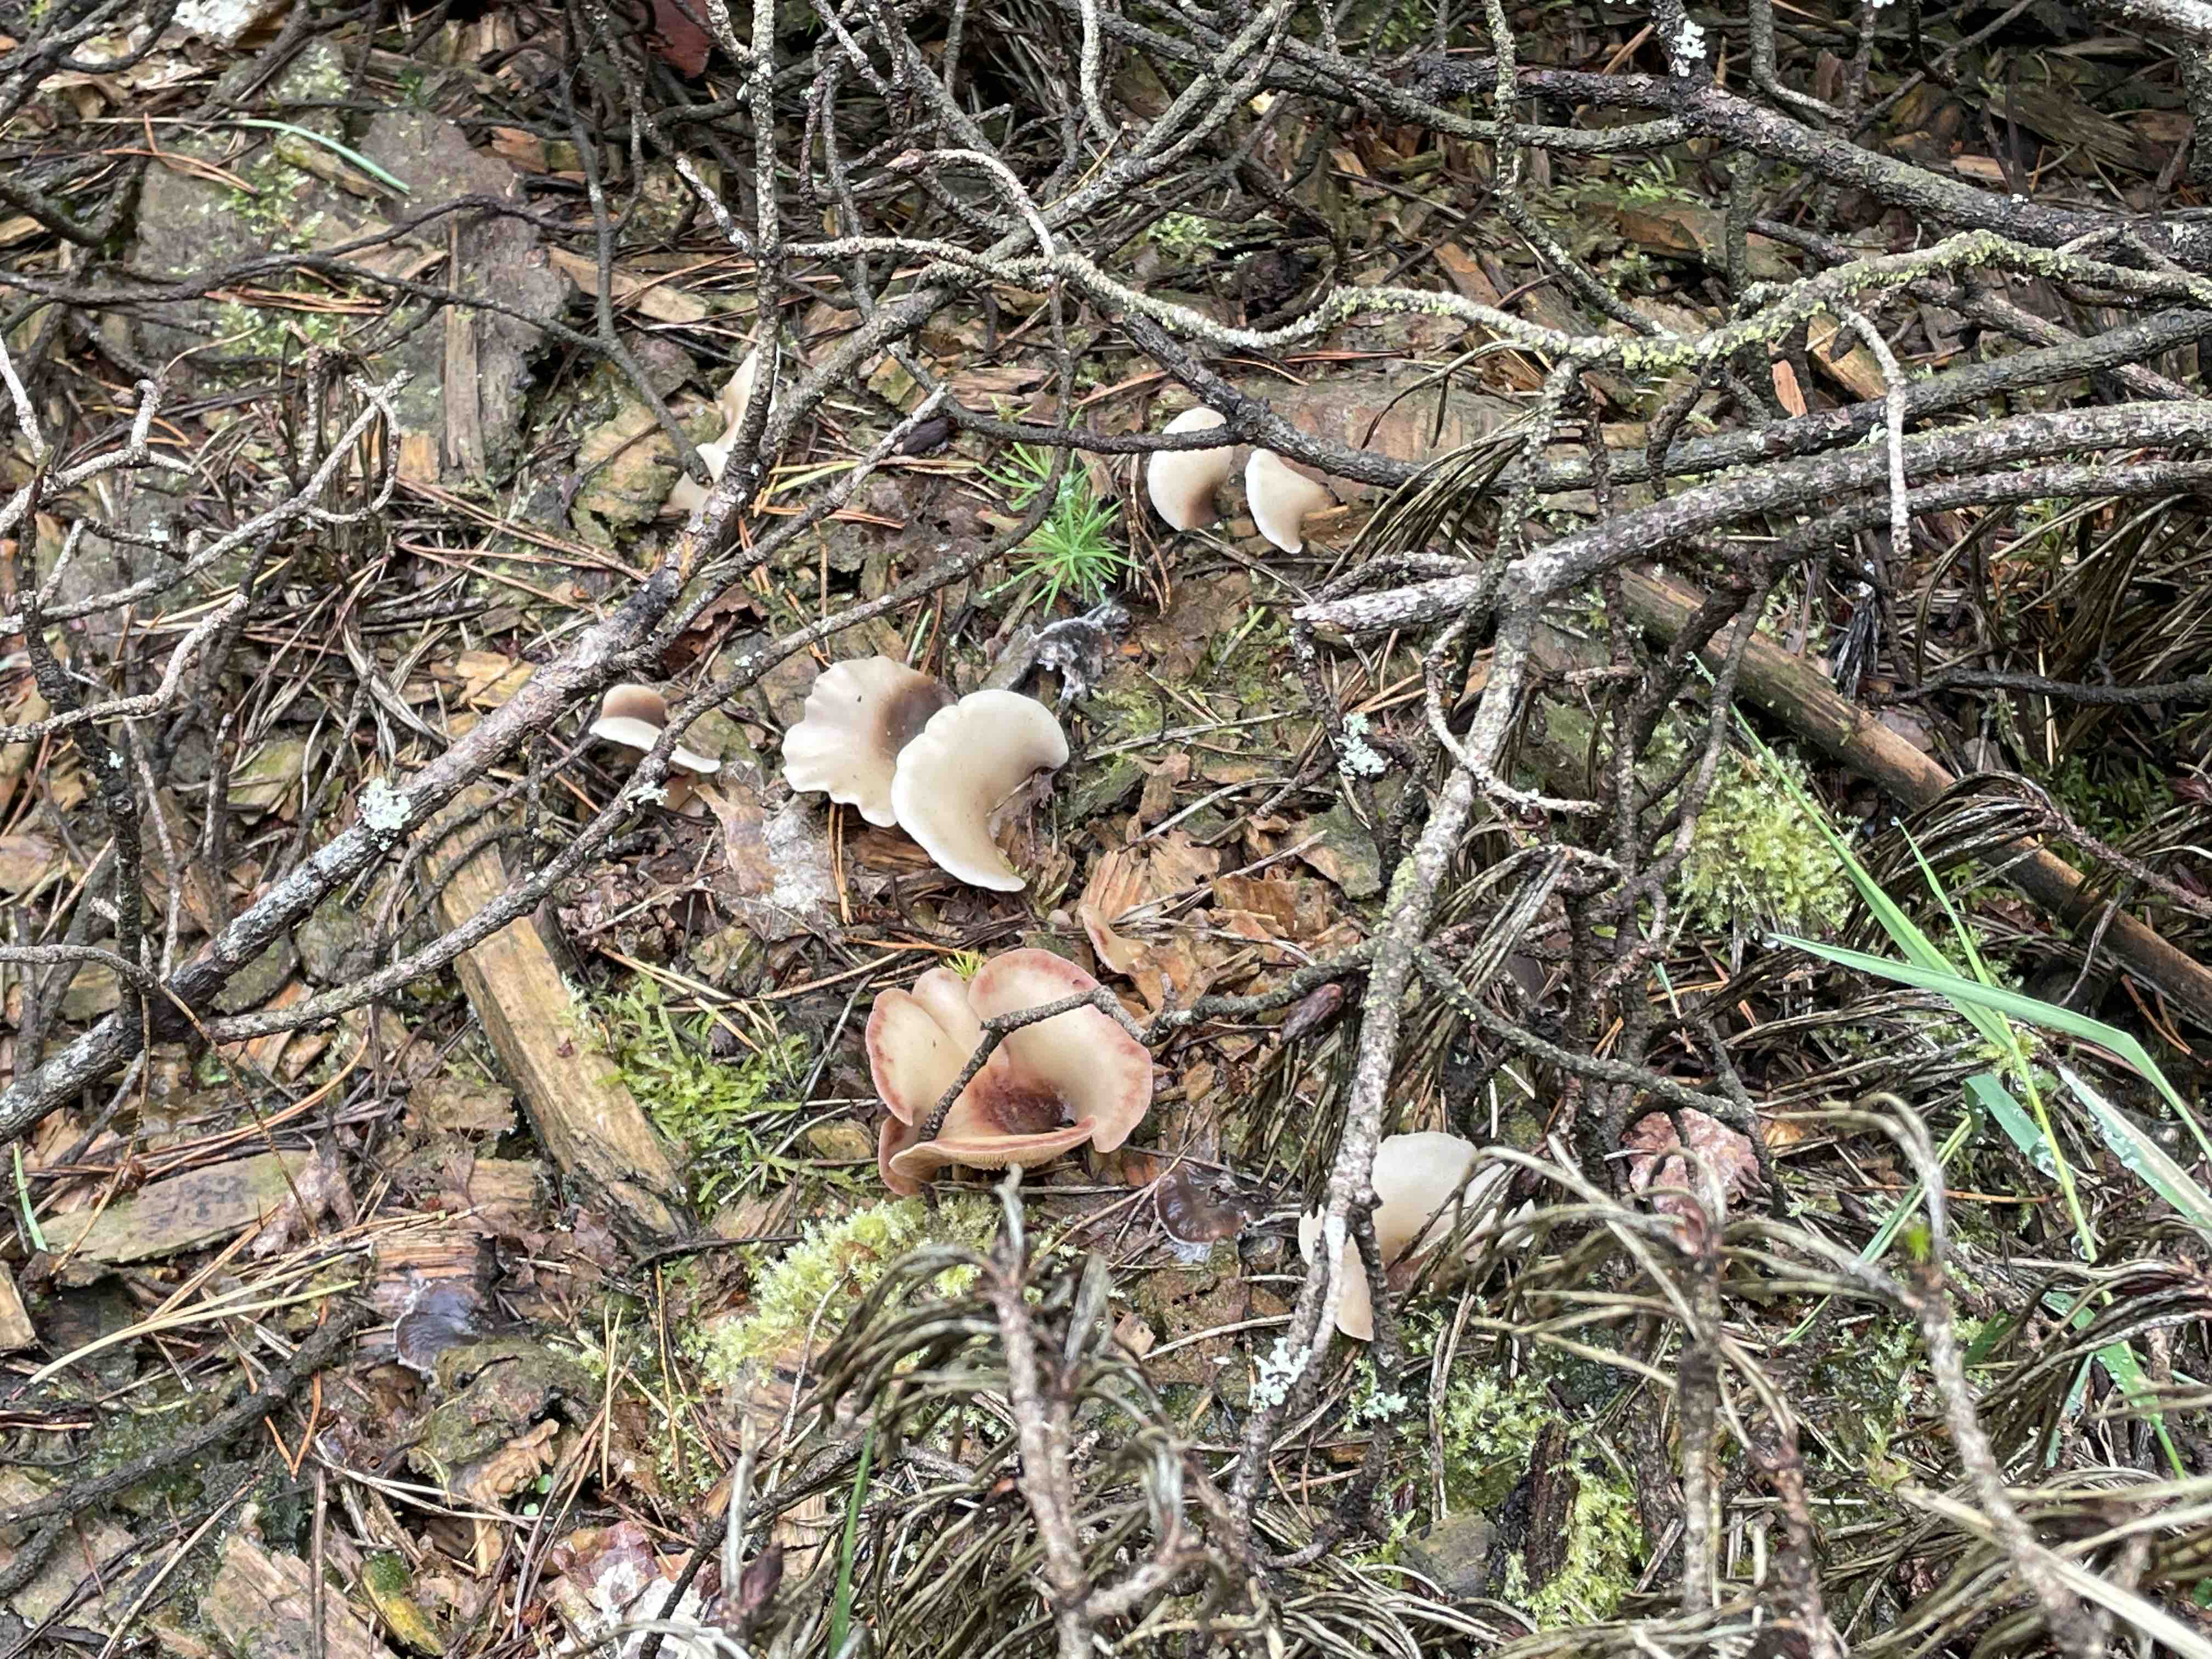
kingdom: Fungi
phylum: Basidiomycota
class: Agaricomycetes
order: Agaricales
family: Crepidotaceae
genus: Crepidotus
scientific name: Crepidotus
